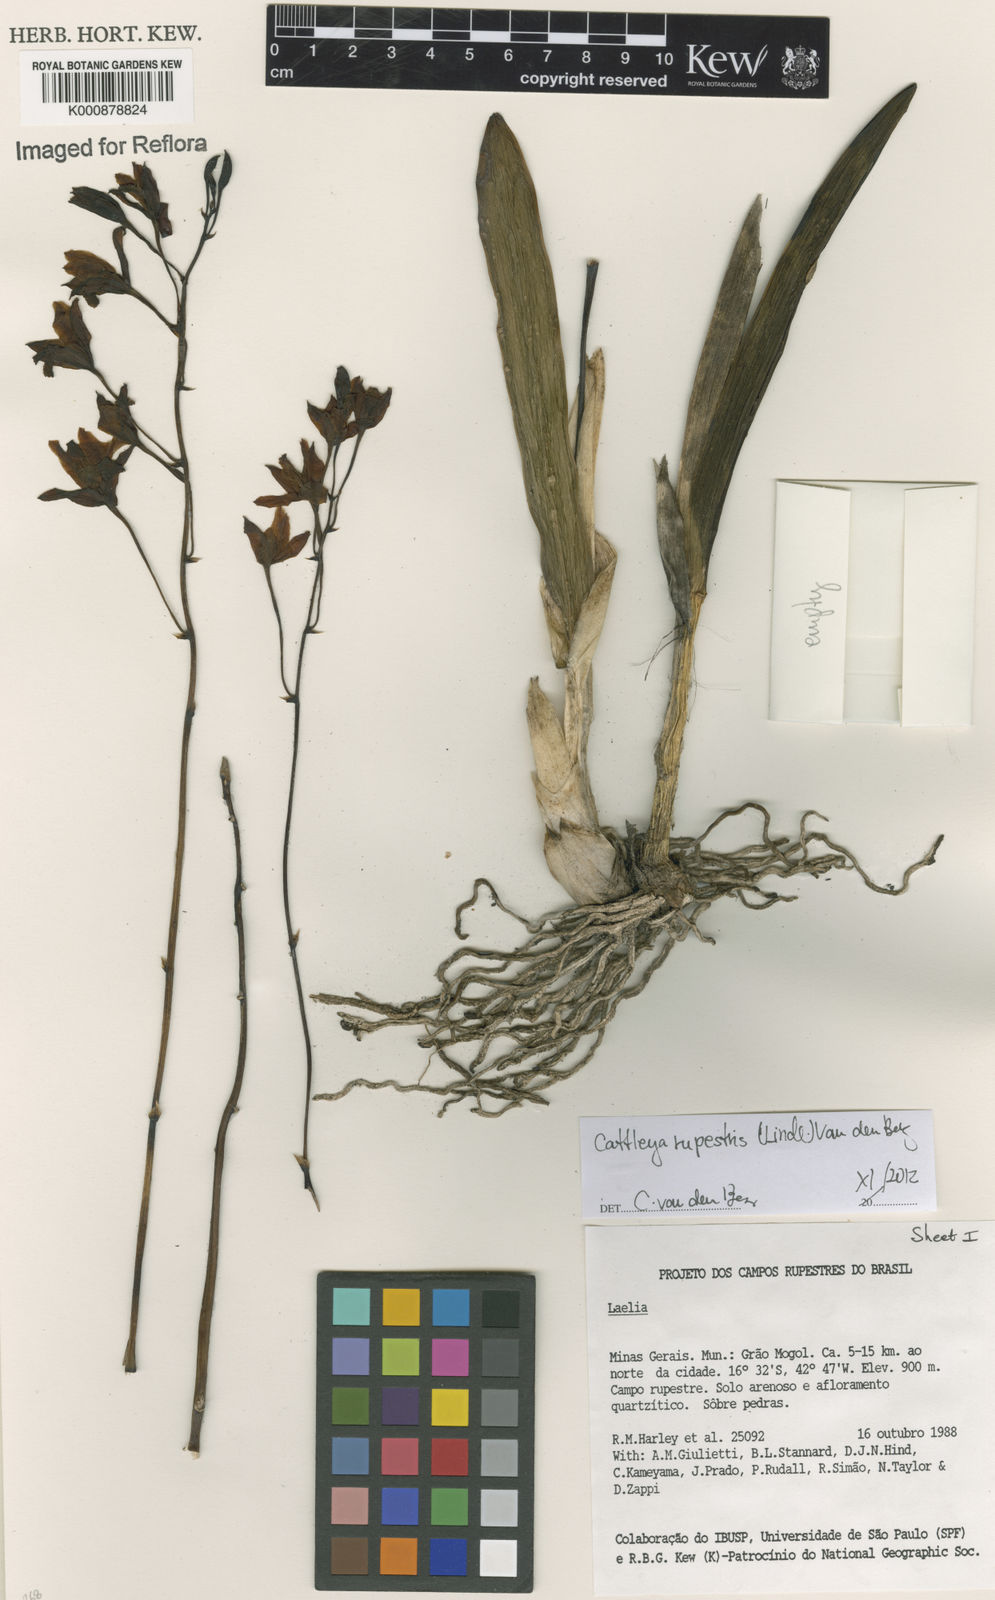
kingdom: Plantae
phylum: Tracheophyta
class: Liliopsida
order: Asparagales
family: Orchidaceae
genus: Cattleya
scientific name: Cattleya rupestris
